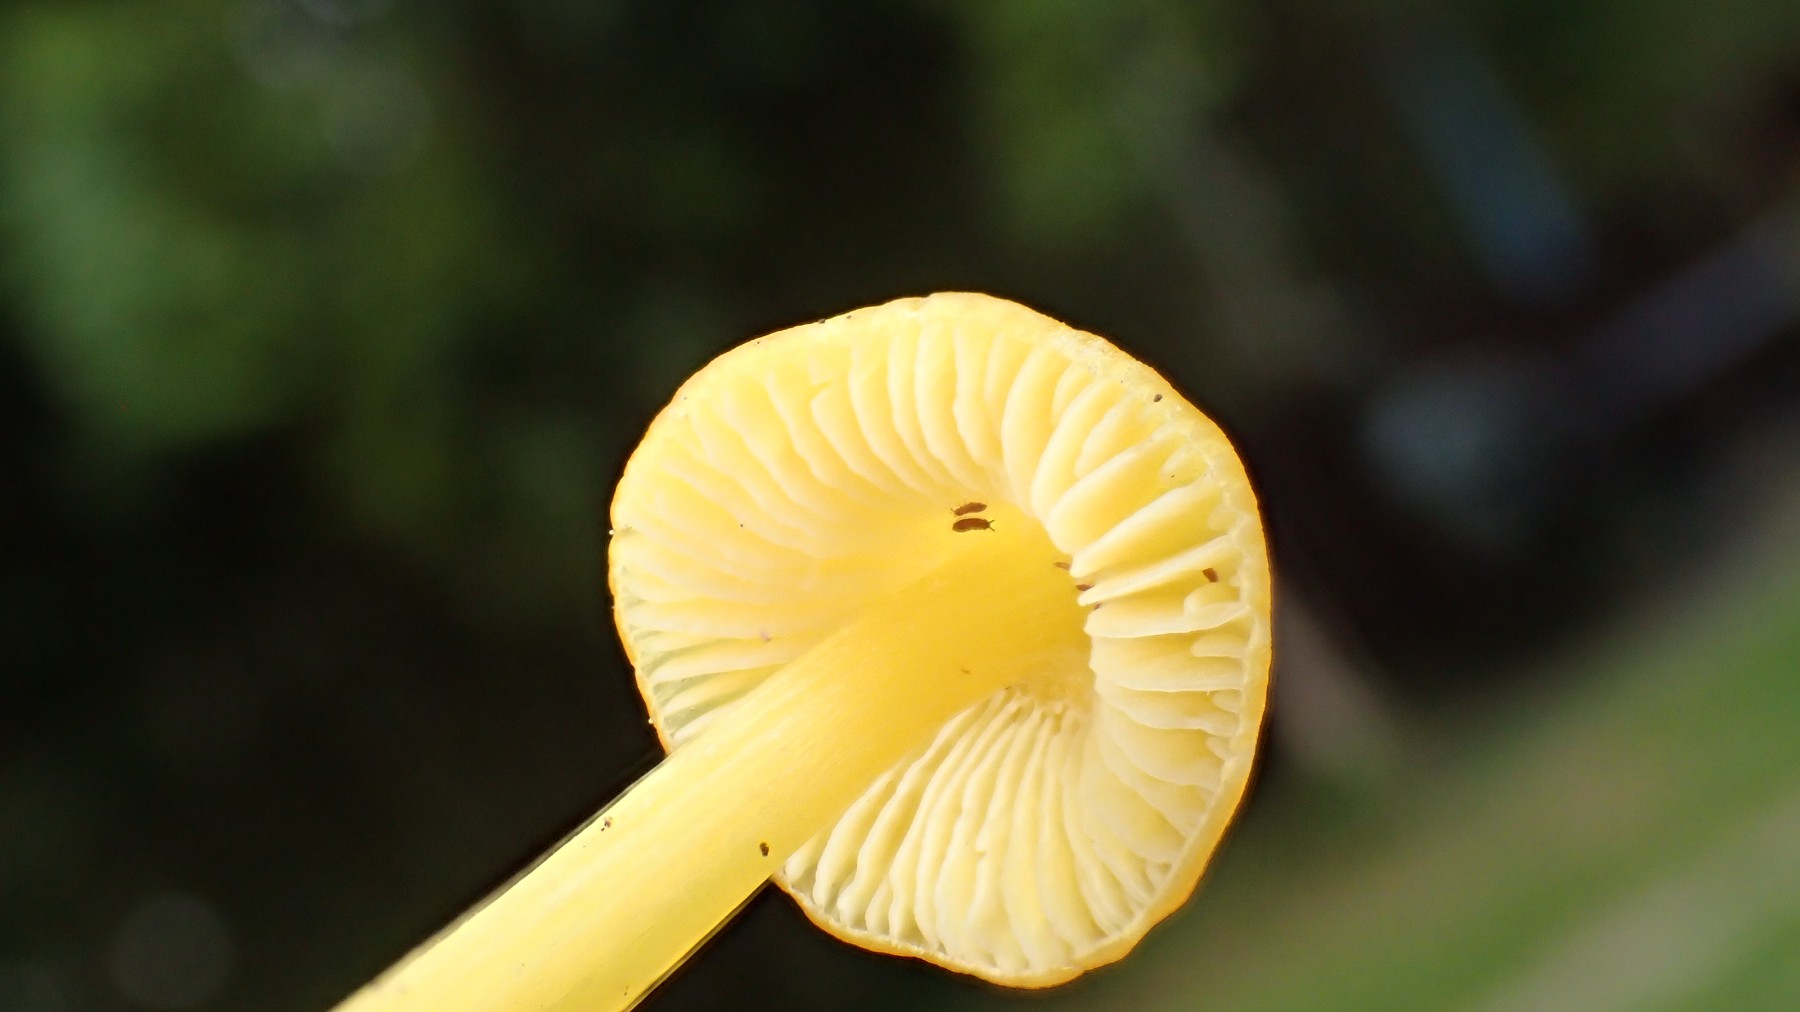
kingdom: Fungi
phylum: Basidiomycota
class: Agaricomycetes
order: Agaricales
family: Hygrophoraceae
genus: Hygrocybe
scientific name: Hygrocybe
